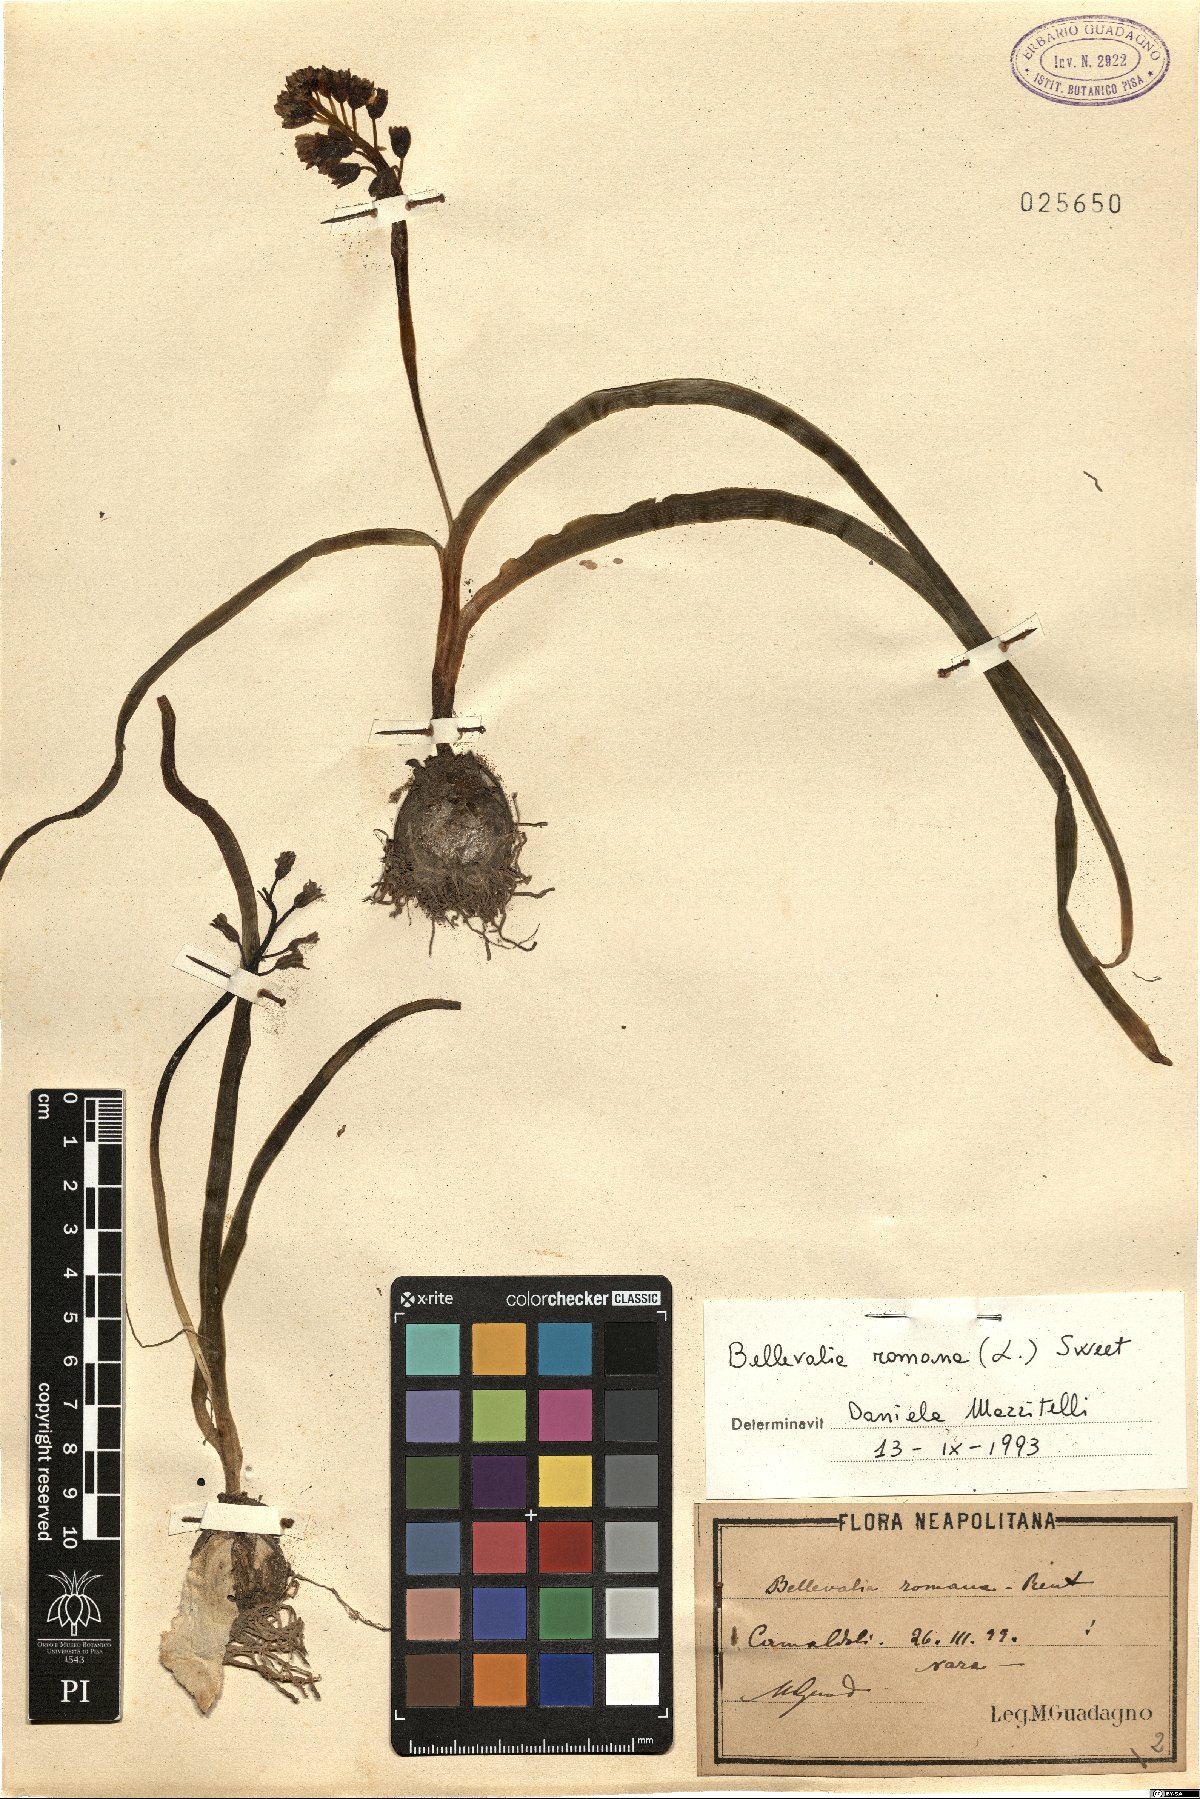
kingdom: Plantae
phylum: Tracheophyta
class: Liliopsida
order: Asparagales
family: Asparagaceae
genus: Bellevalia
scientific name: Bellevalia romana
